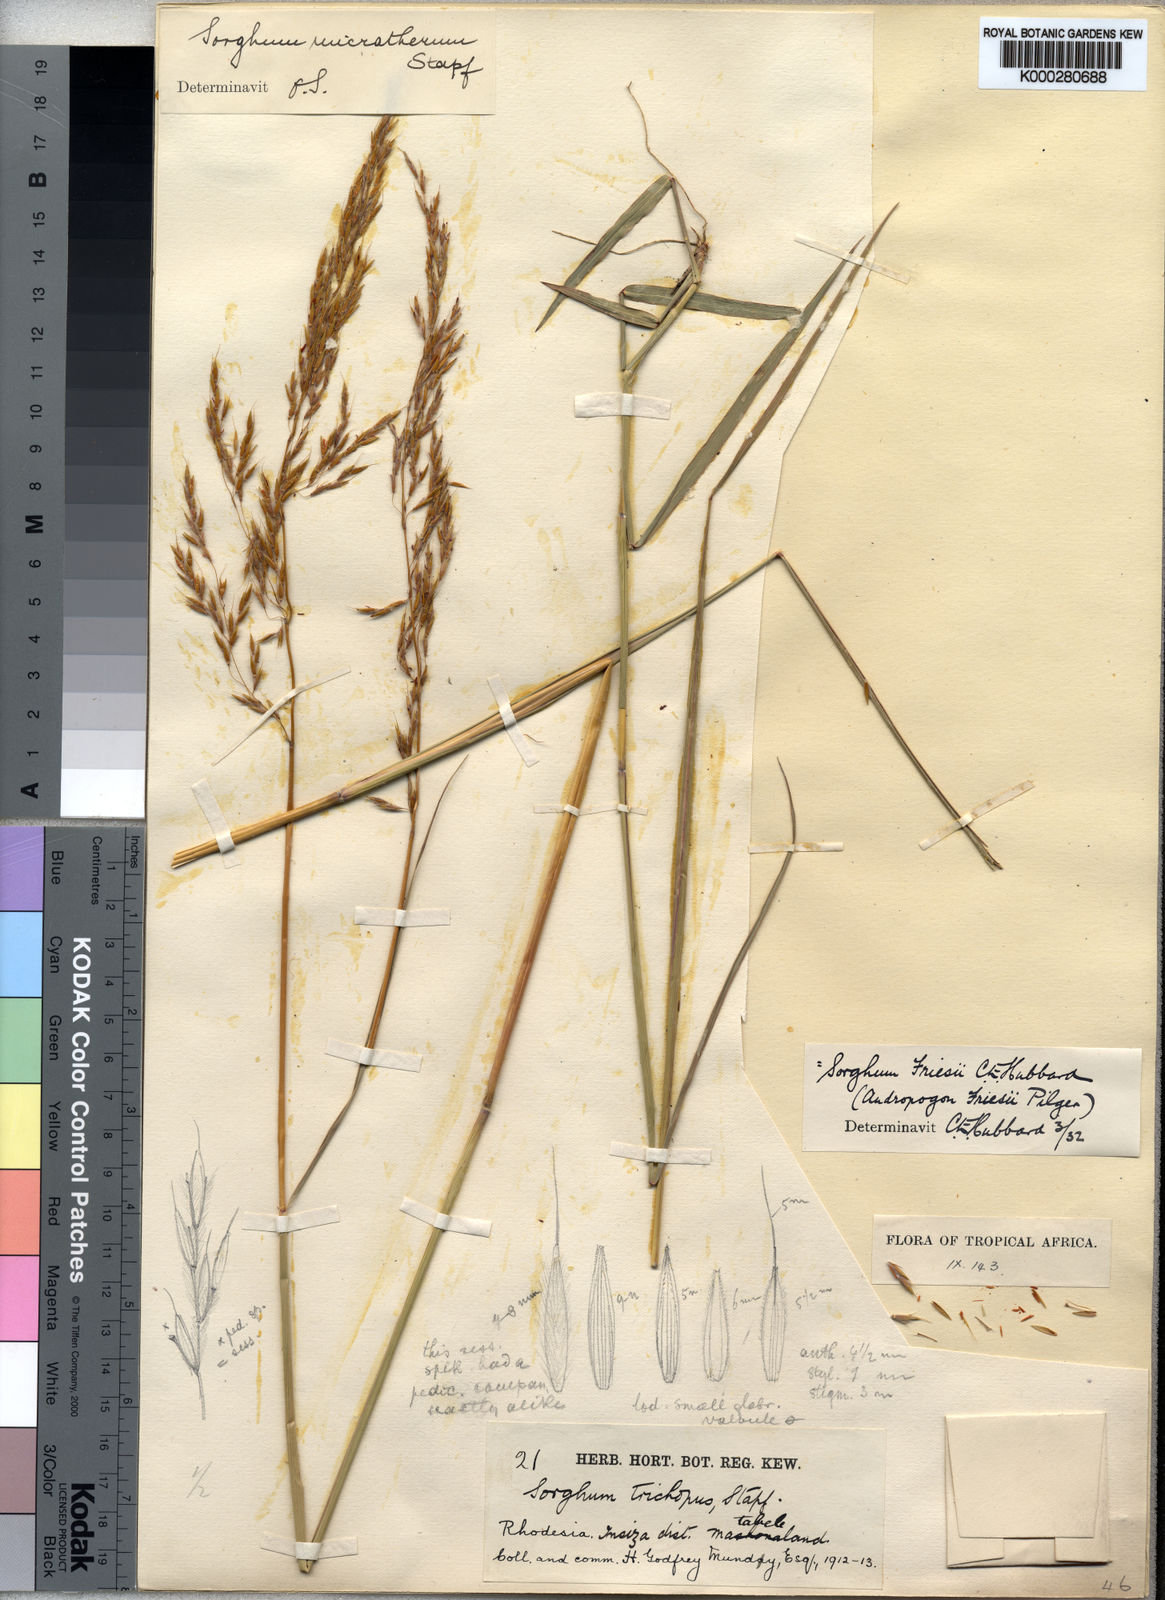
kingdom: Plantae
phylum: Tracheophyta
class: Liliopsida
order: Poales
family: Poaceae
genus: Sorghastrum
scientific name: Sorghastrum nudipes
